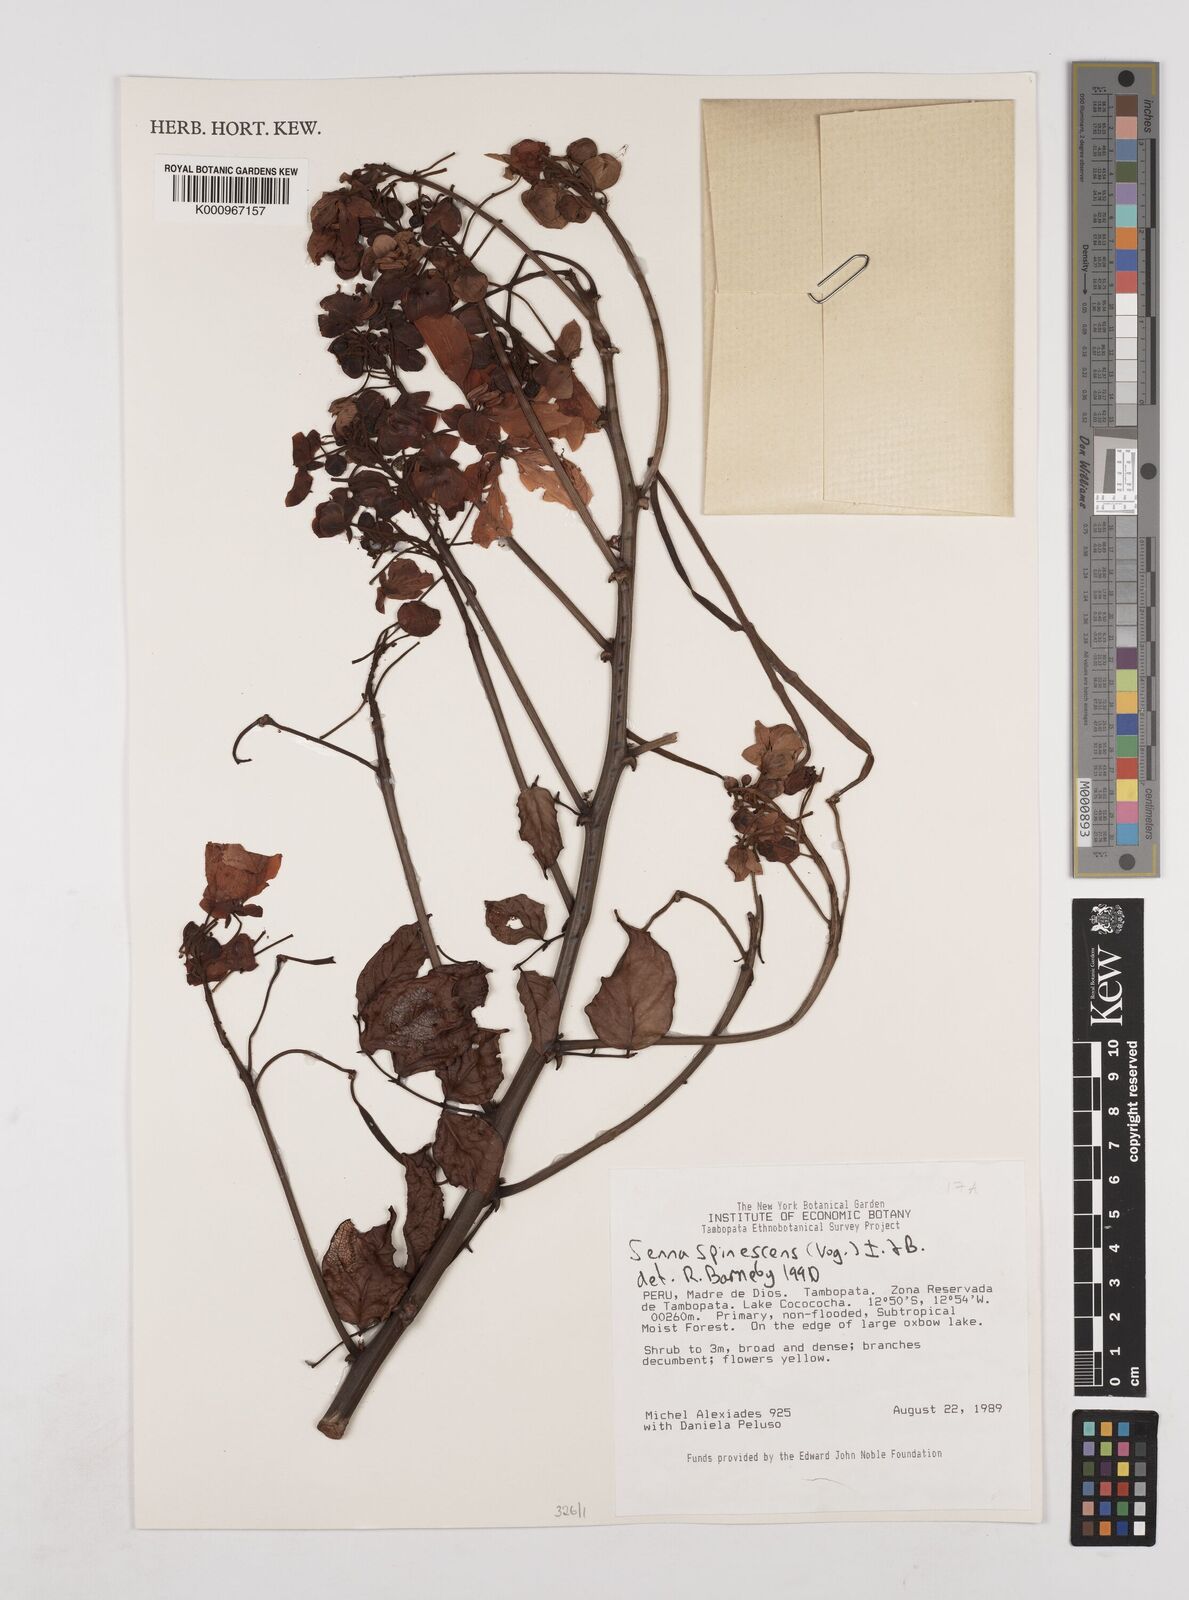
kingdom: Plantae
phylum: Tracheophyta
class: Magnoliopsida
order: Fabales
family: Fabaceae
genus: Senna
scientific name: Senna spinescens
